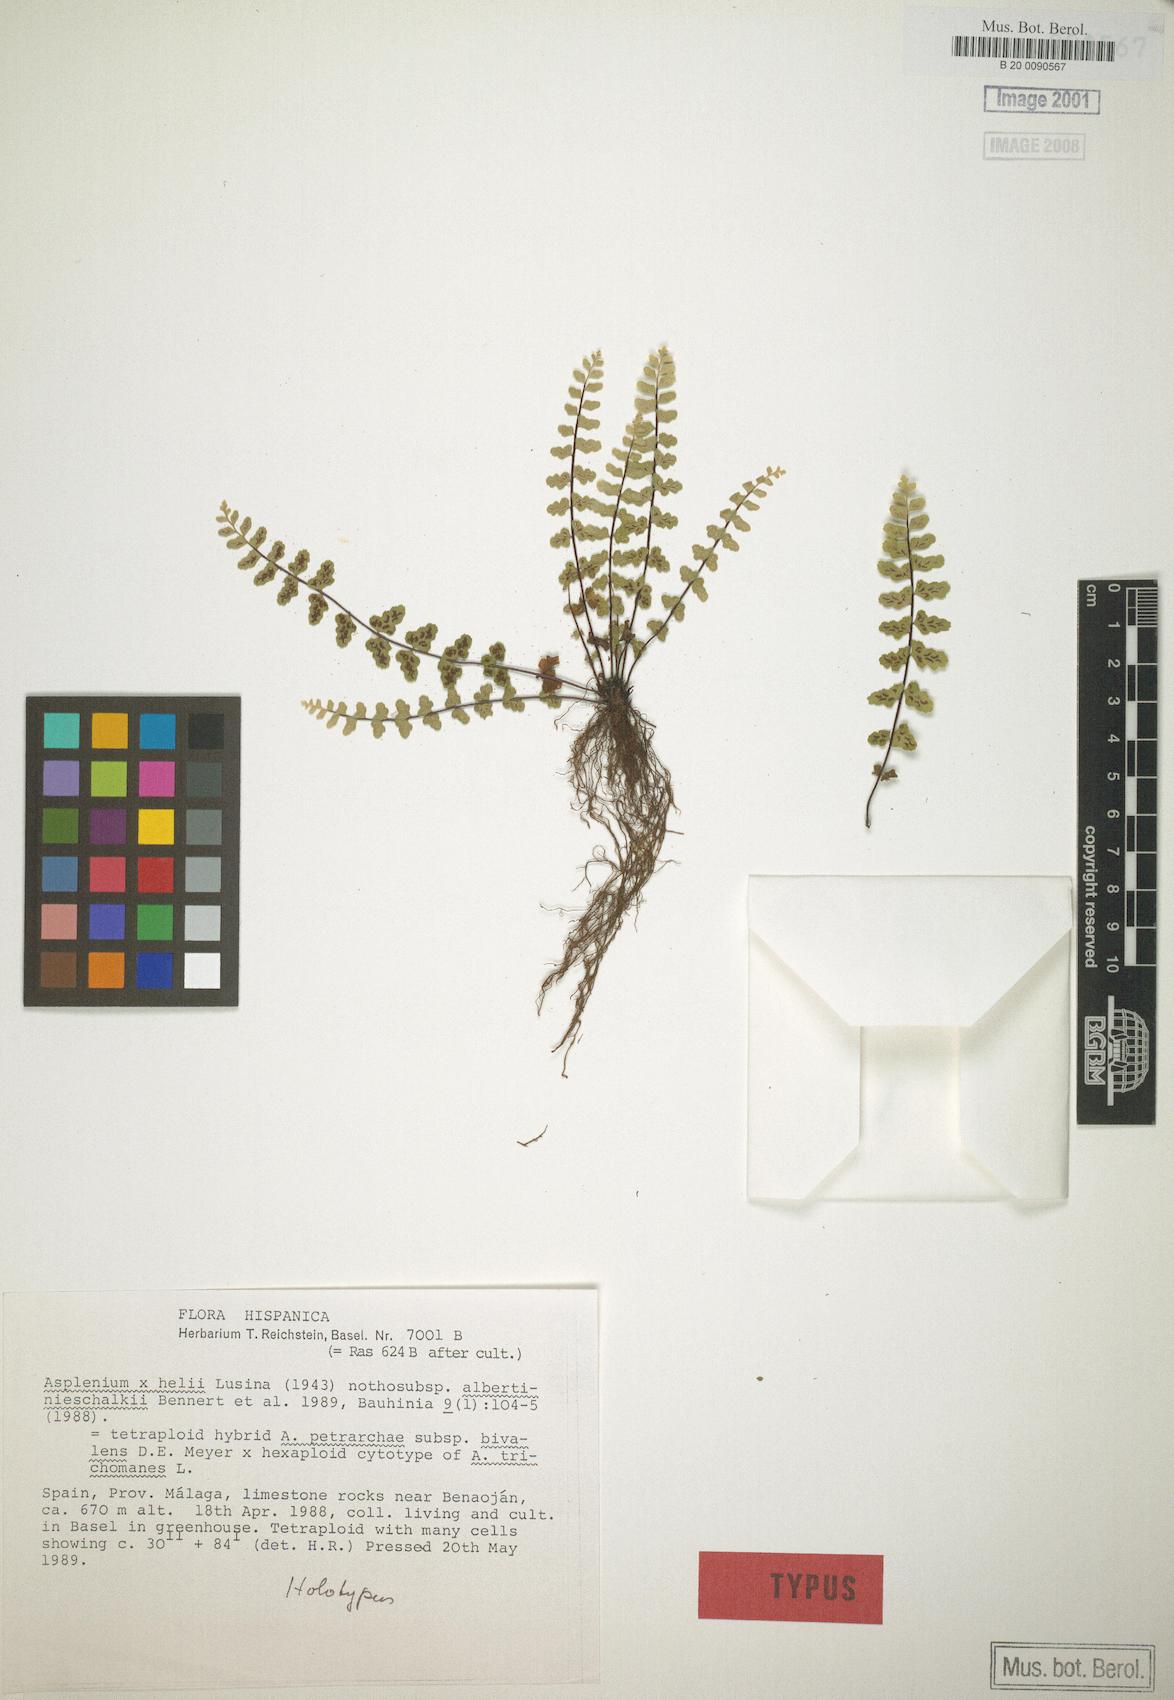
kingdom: Plantae
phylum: Tracheophyta
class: Polypodiopsida
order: Polypodiales
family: Aspleniaceae
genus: Asplenium
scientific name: Asplenium helii
